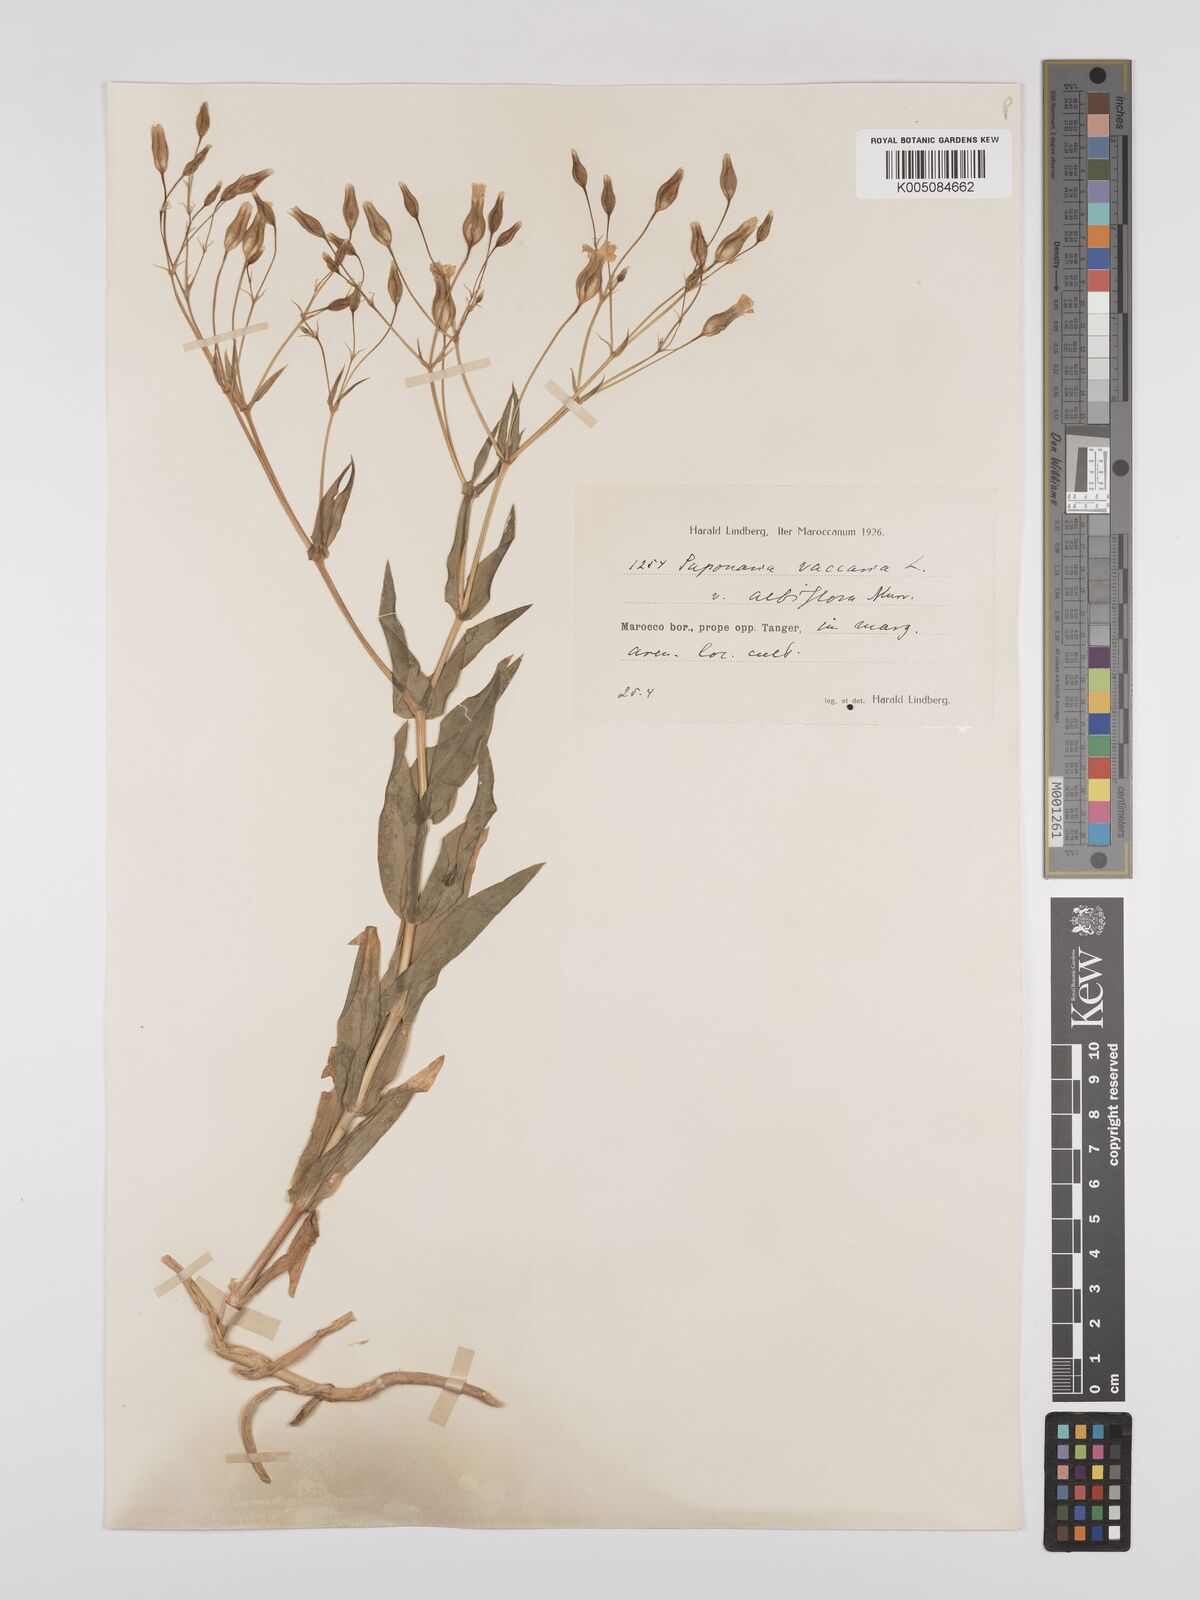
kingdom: Plantae
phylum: Tracheophyta
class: Magnoliopsida
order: Caryophyllales
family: Caryophyllaceae
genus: Gypsophila
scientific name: Gypsophila vaccaria
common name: Cow soapwort
